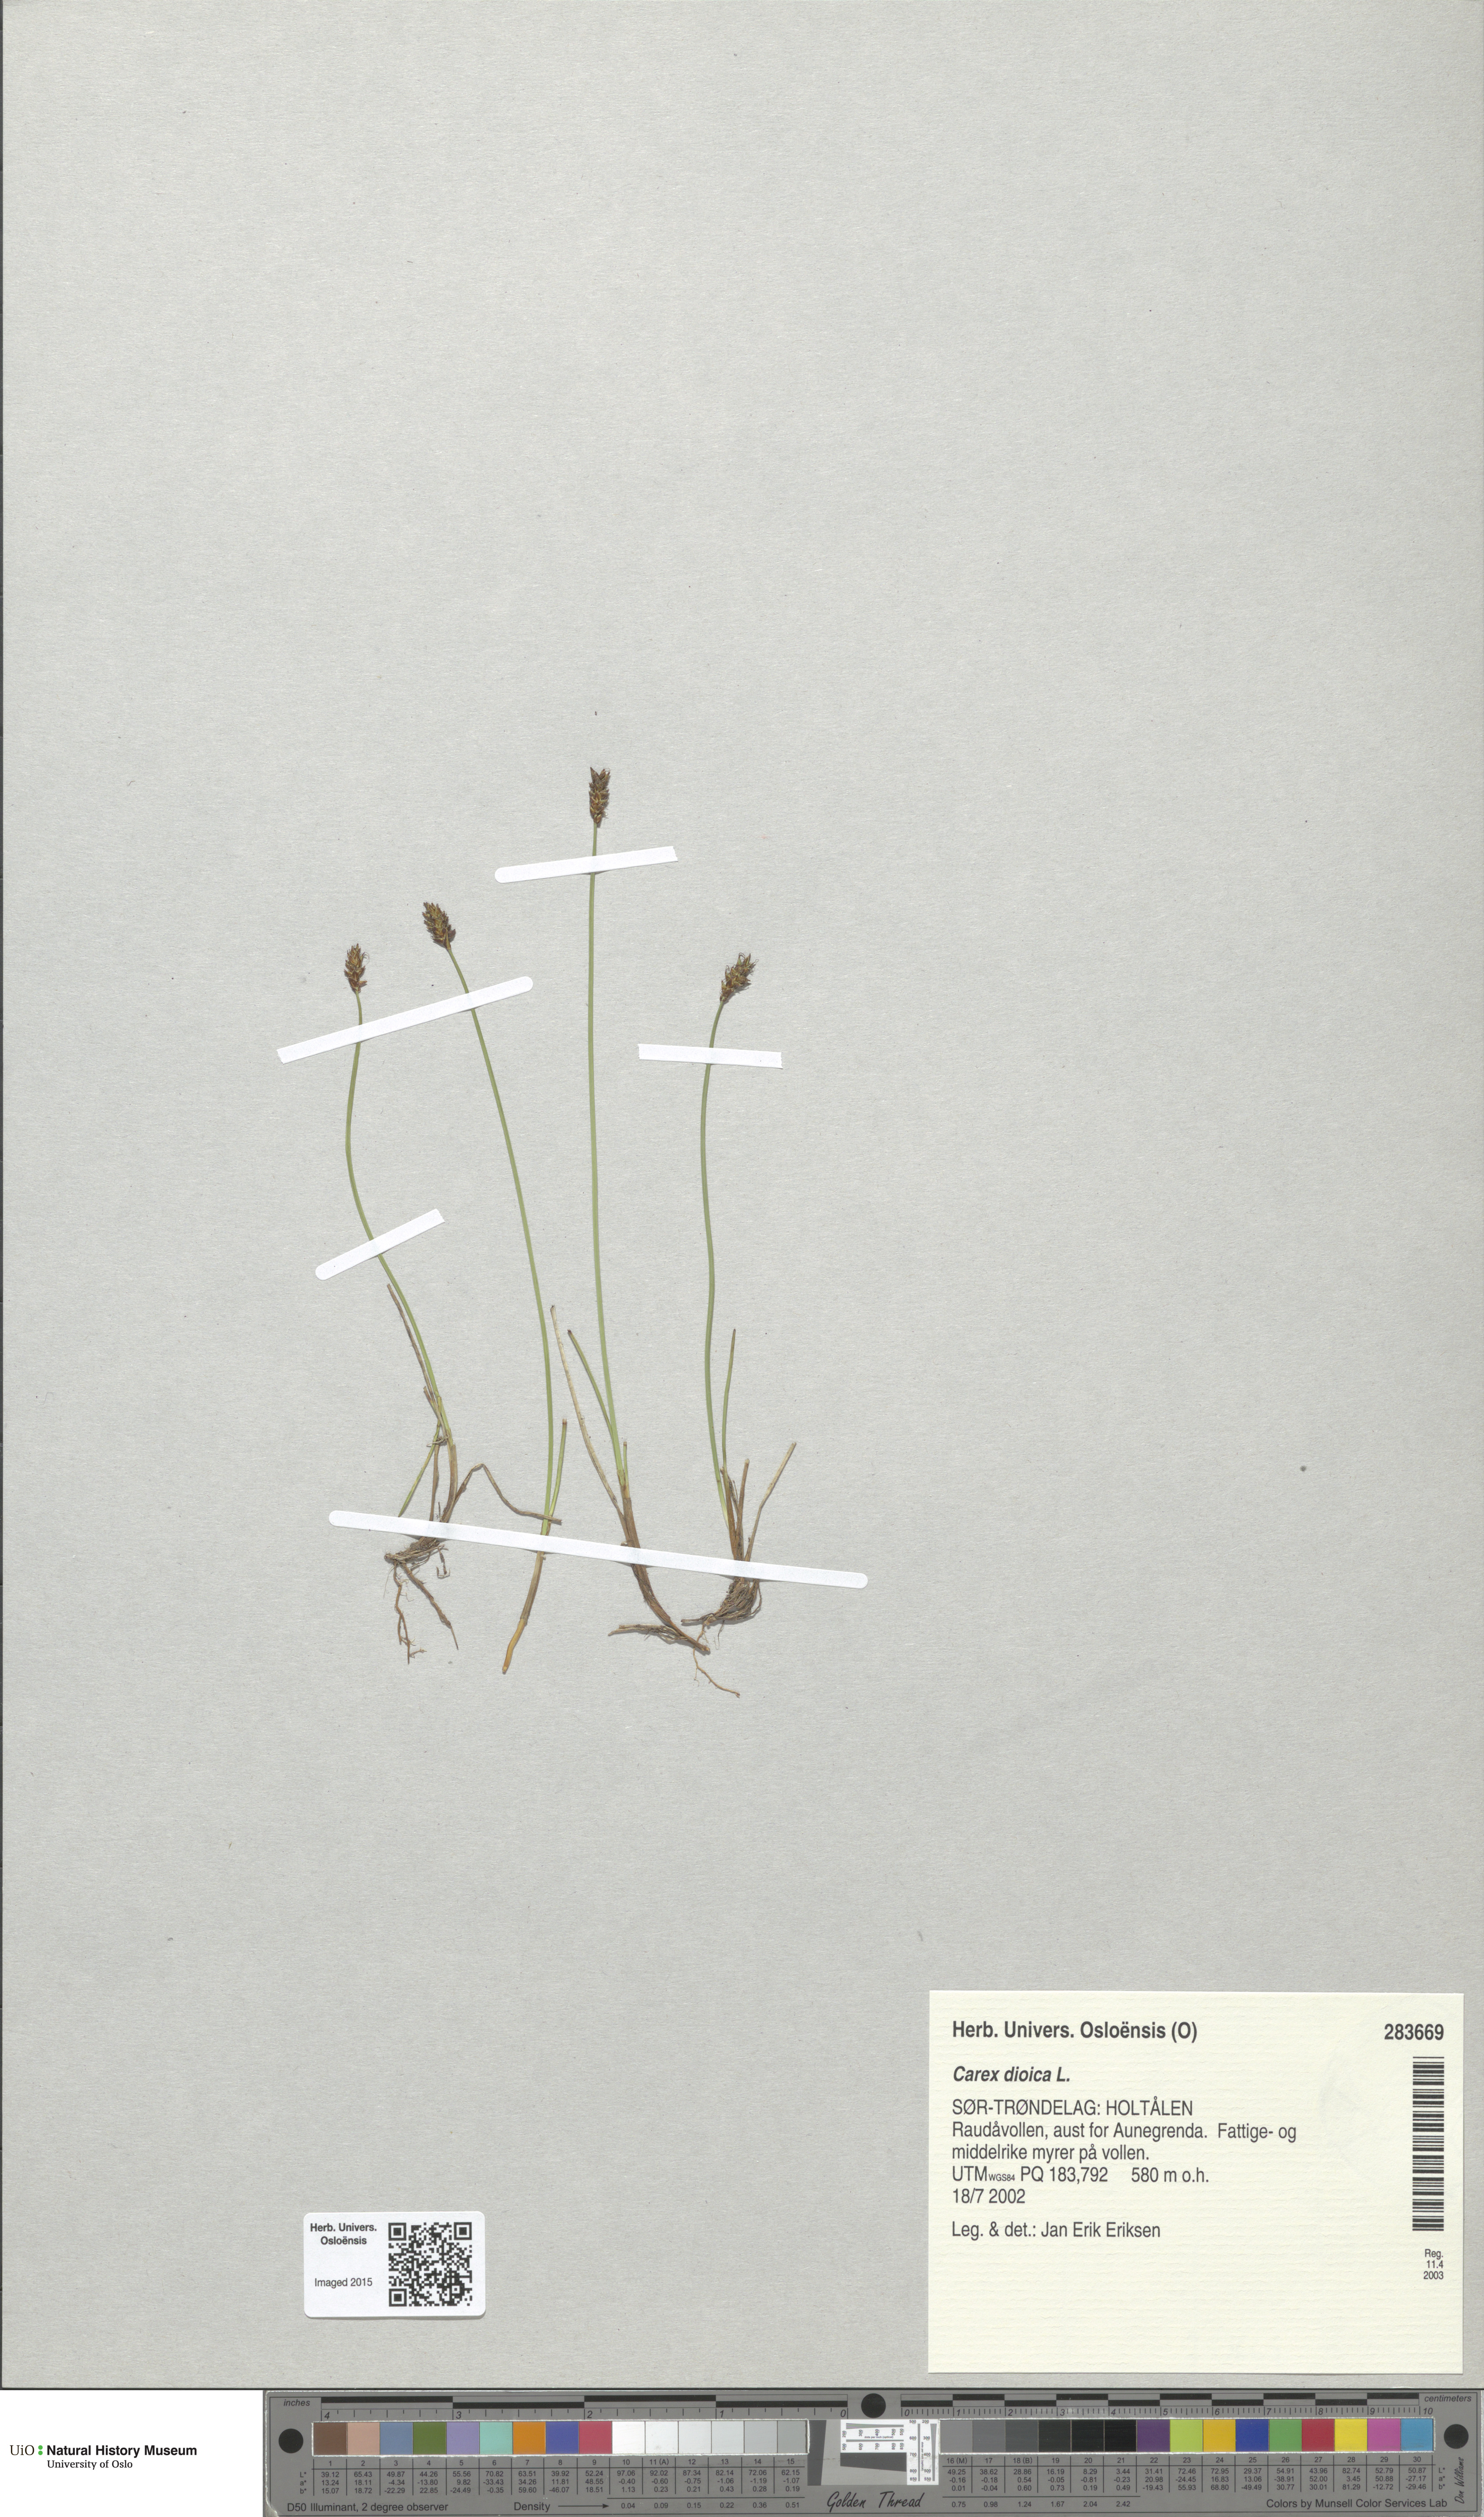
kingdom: Plantae
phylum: Tracheophyta
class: Liliopsida
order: Poales
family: Cyperaceae
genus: Carex
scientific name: Carex dioica
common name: Dioecious sedge
